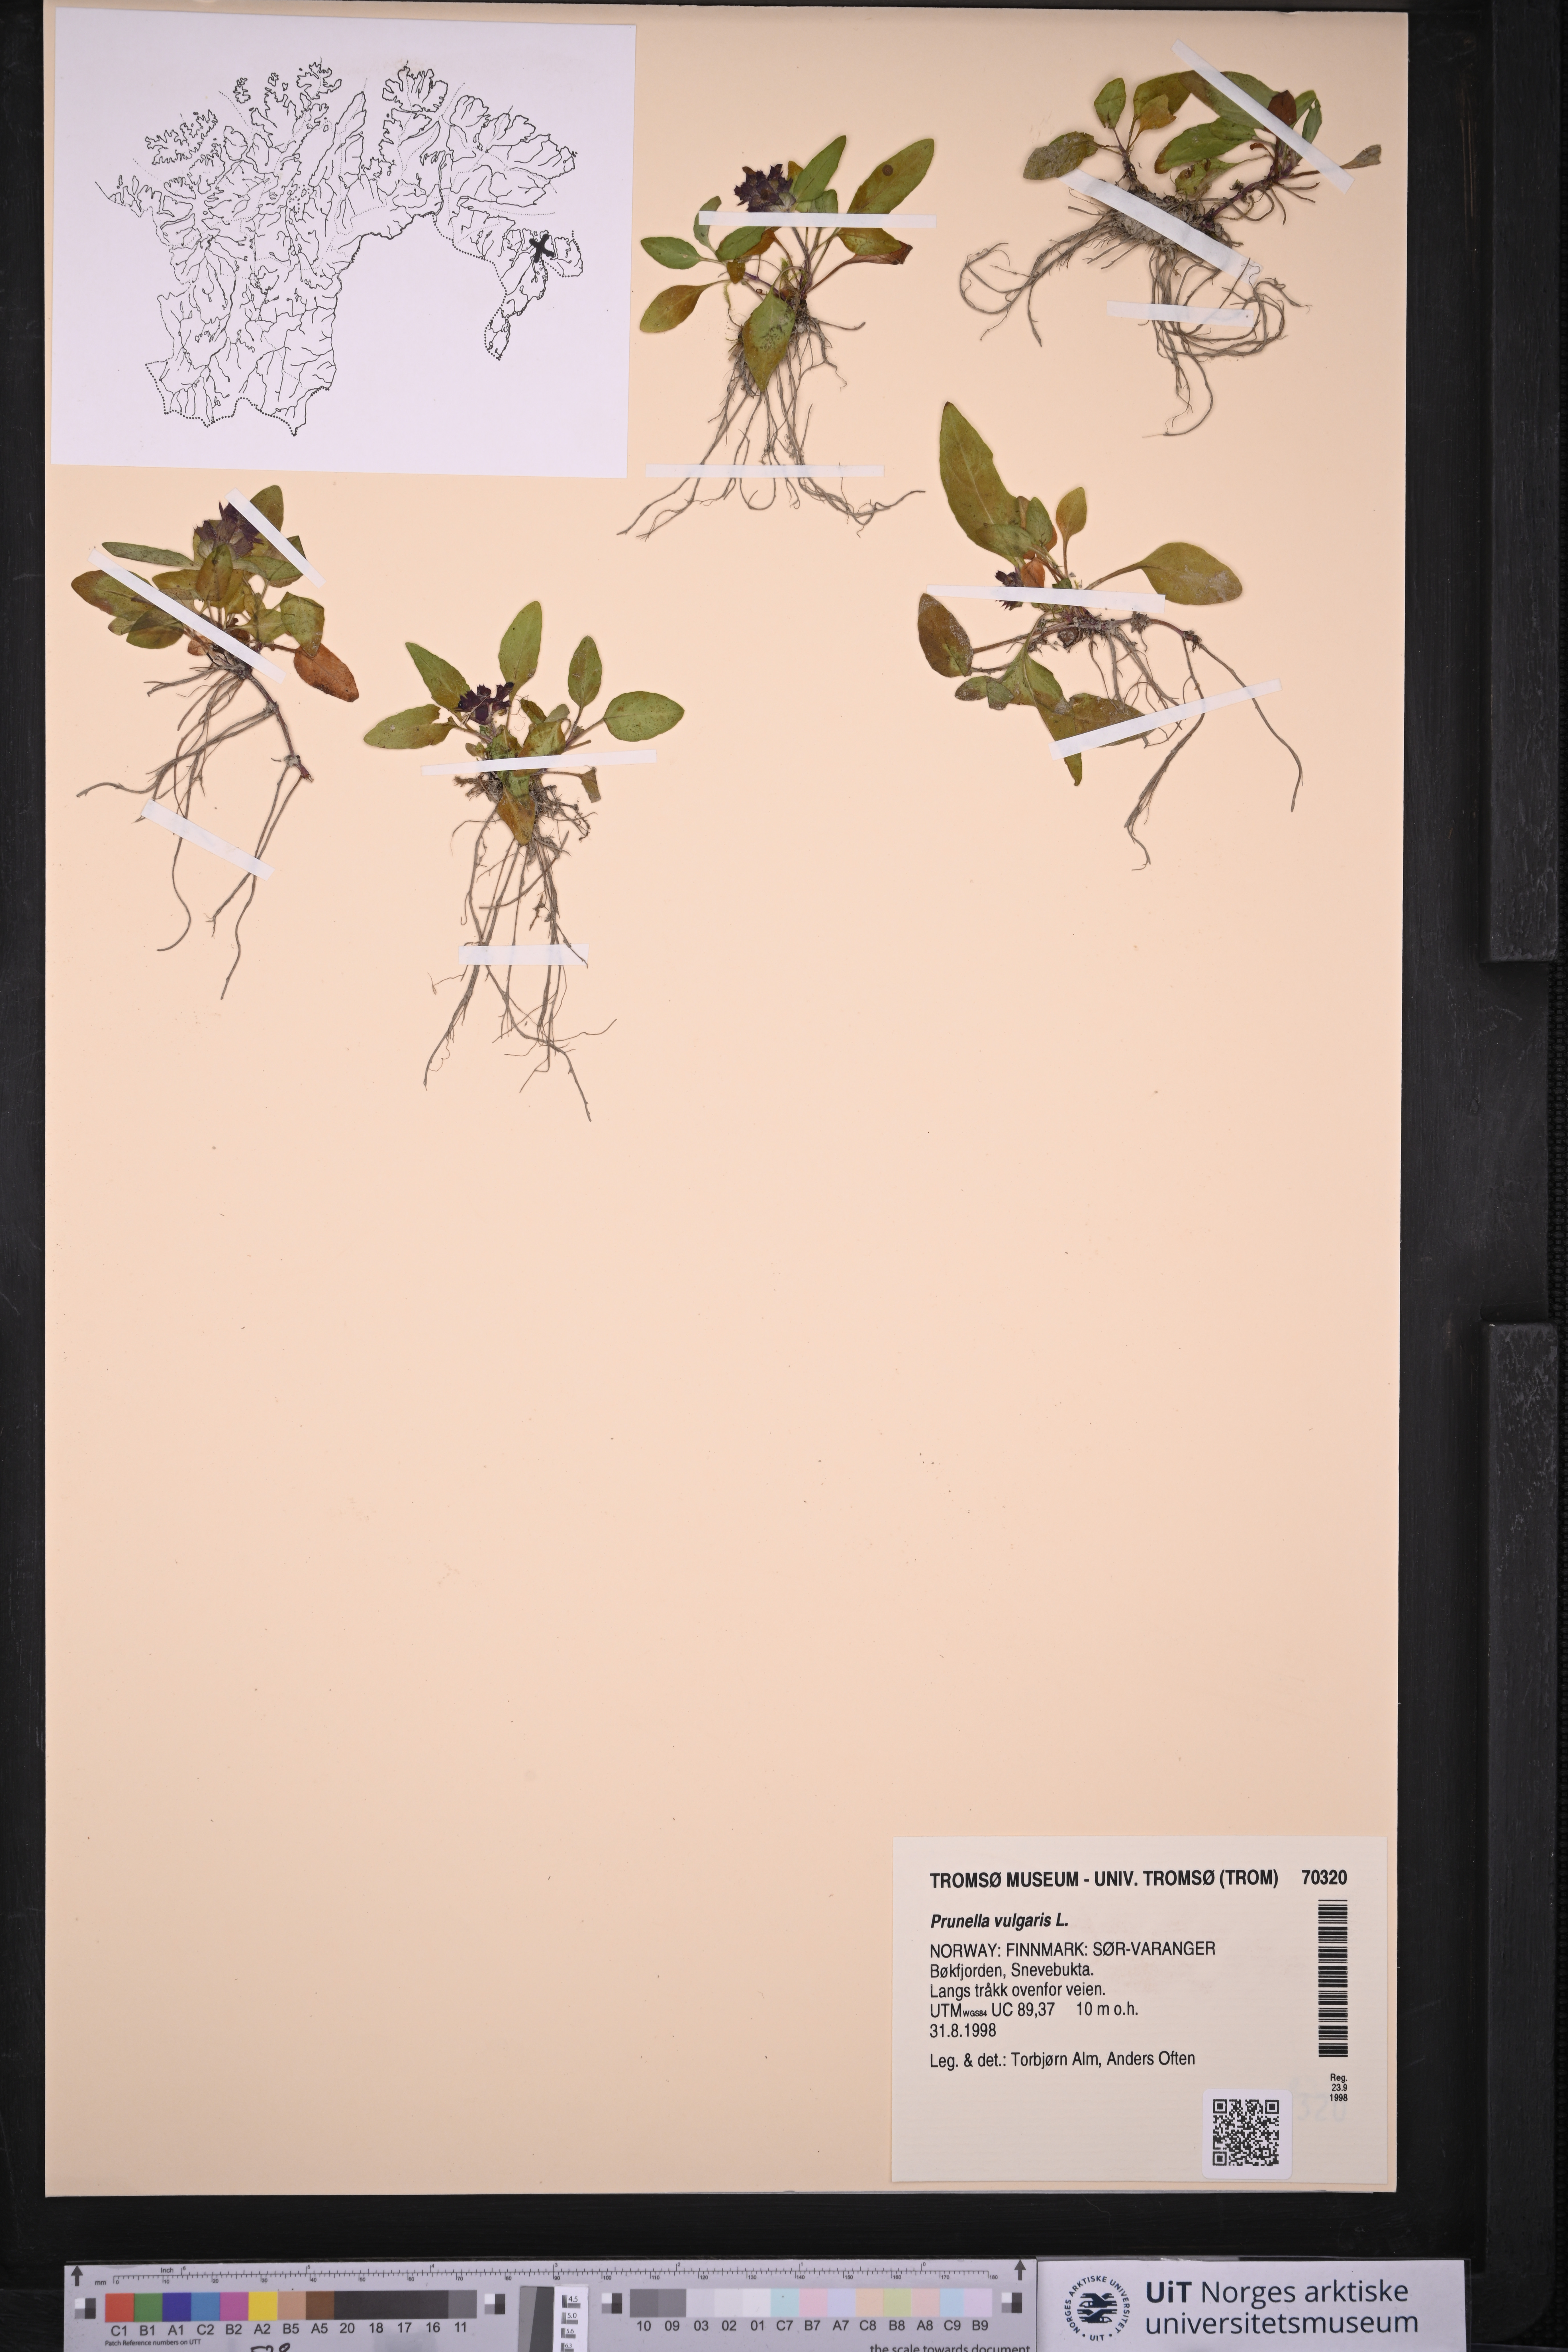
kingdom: Plantae
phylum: Tracheophyta
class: Magnoliopsida
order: Lamiales
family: Lamiaceae
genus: Prunella
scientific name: Prunella vulgaris
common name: Heal-all
